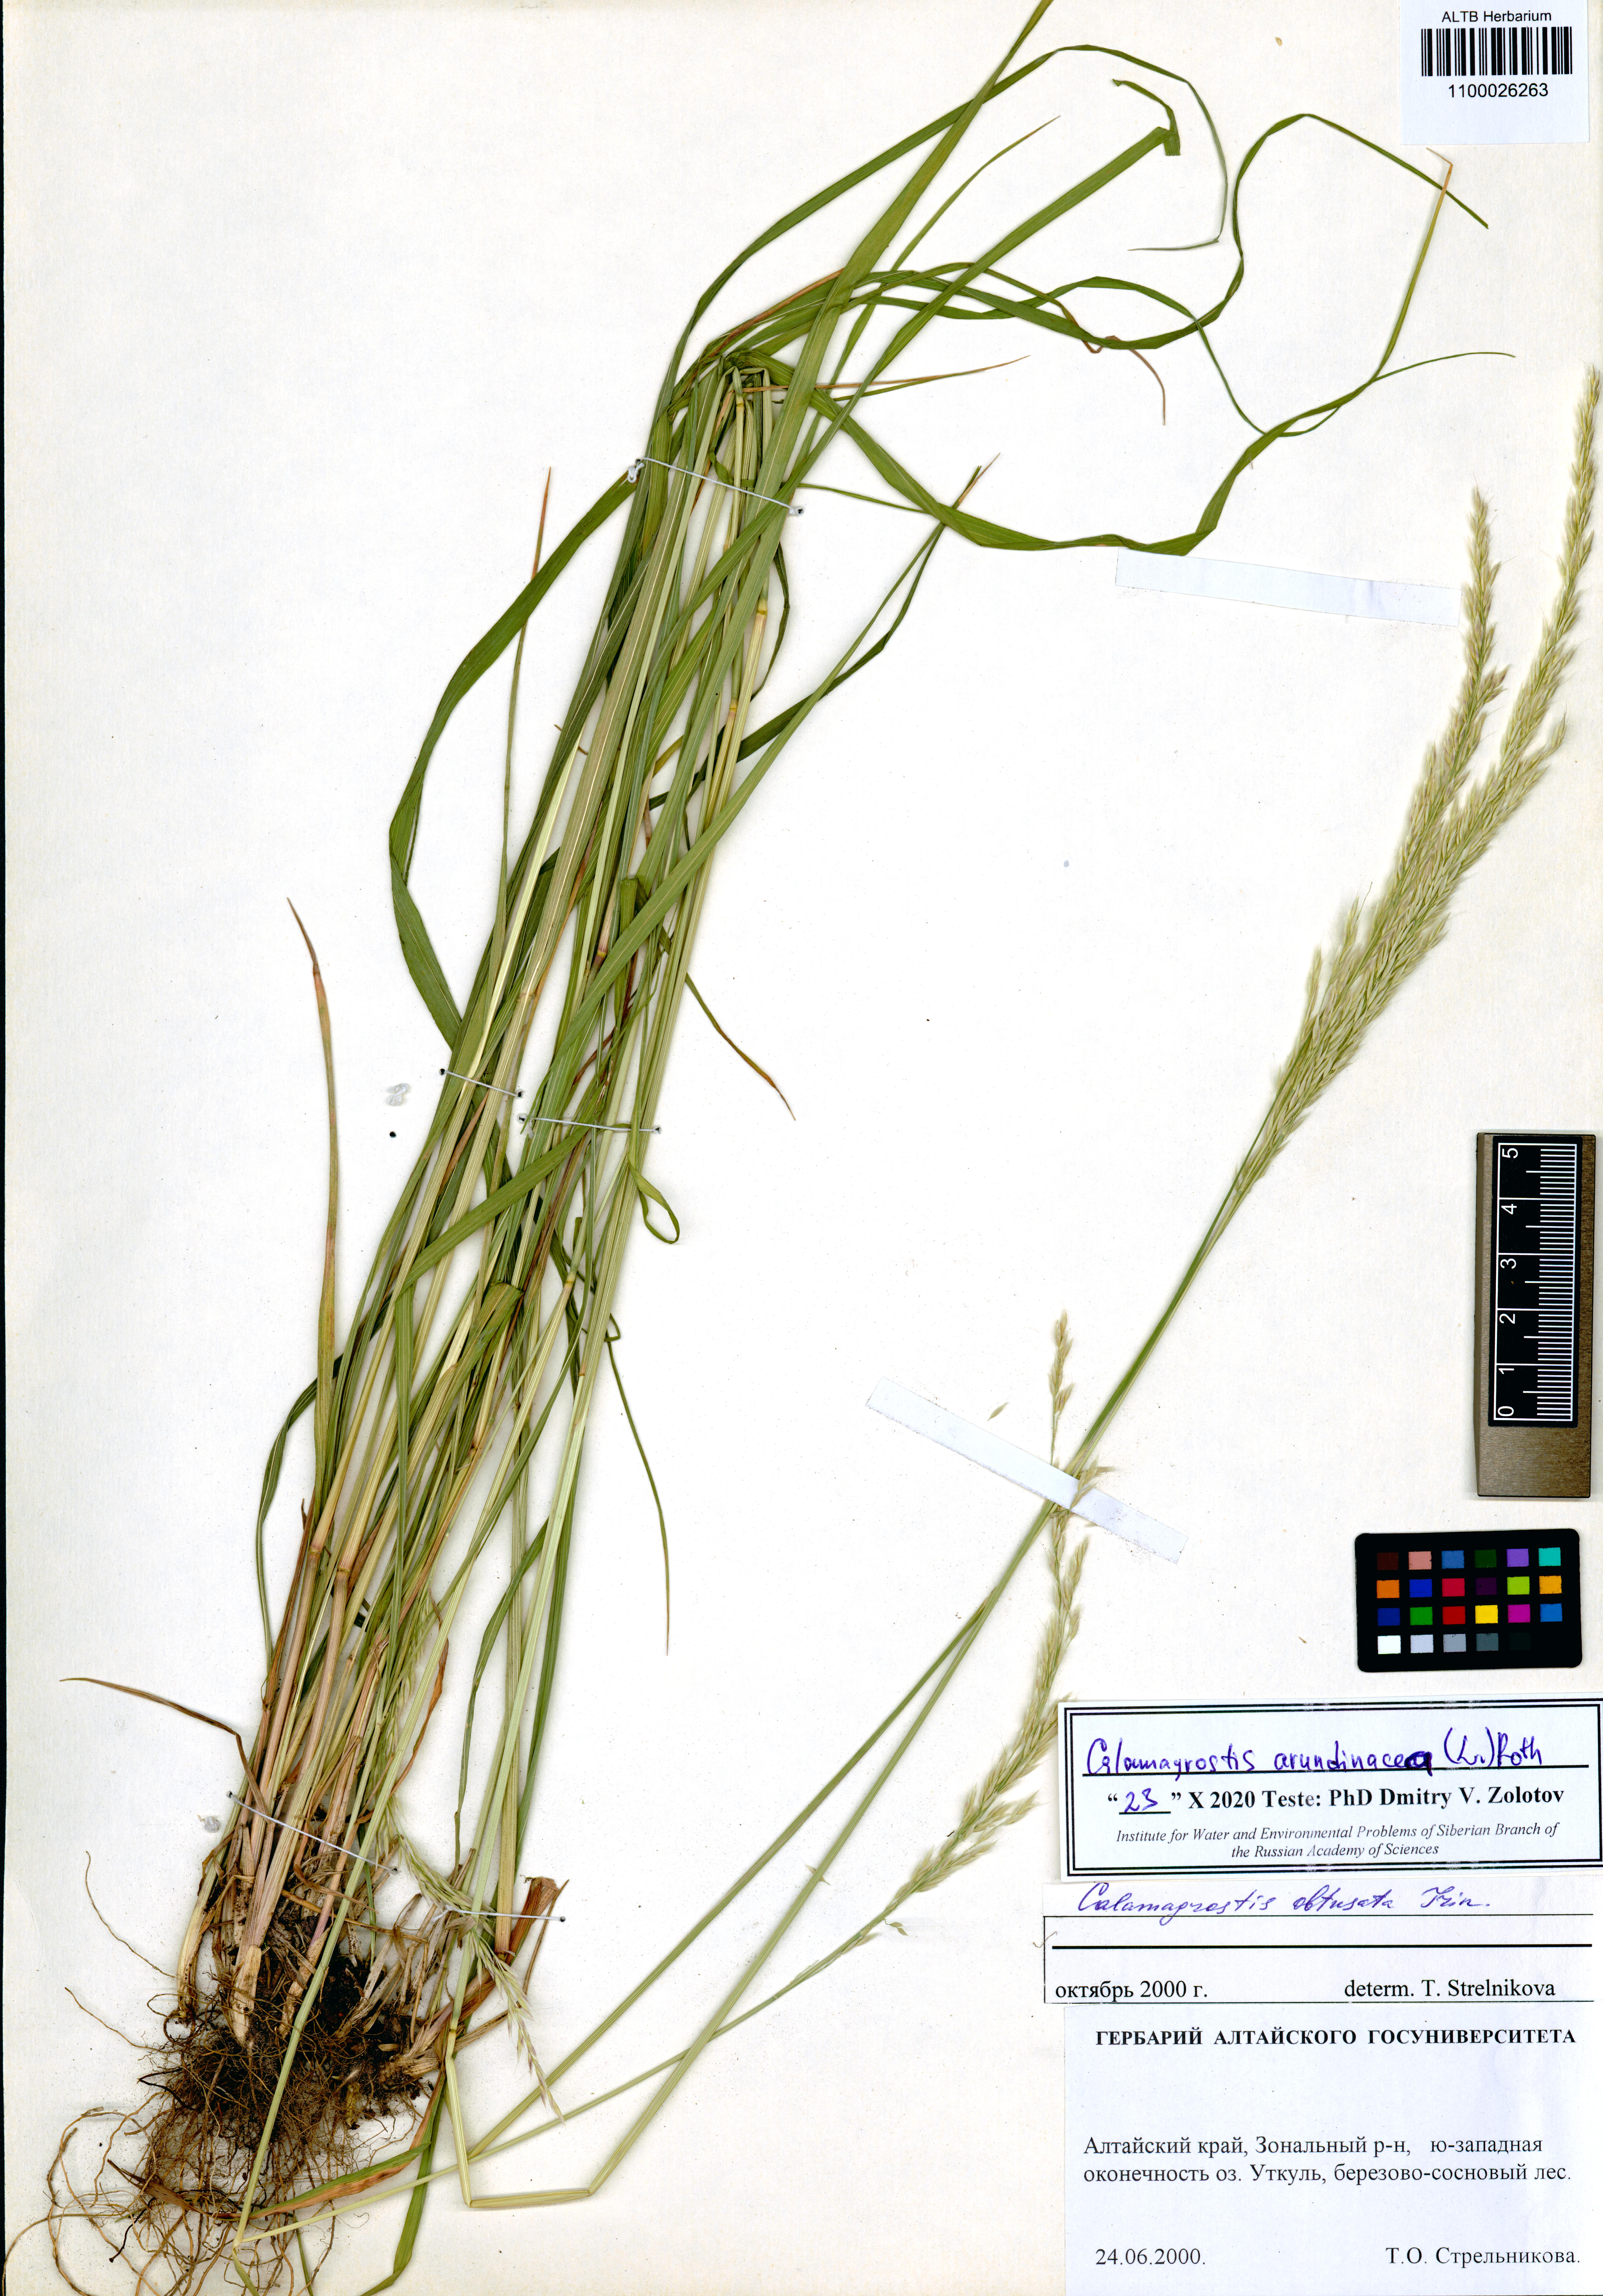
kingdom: Plantae
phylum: Tracheophyta
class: Liliopsida
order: Poales
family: Poaceae
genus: Calamagrostis
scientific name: Calamagrostis obtusata
